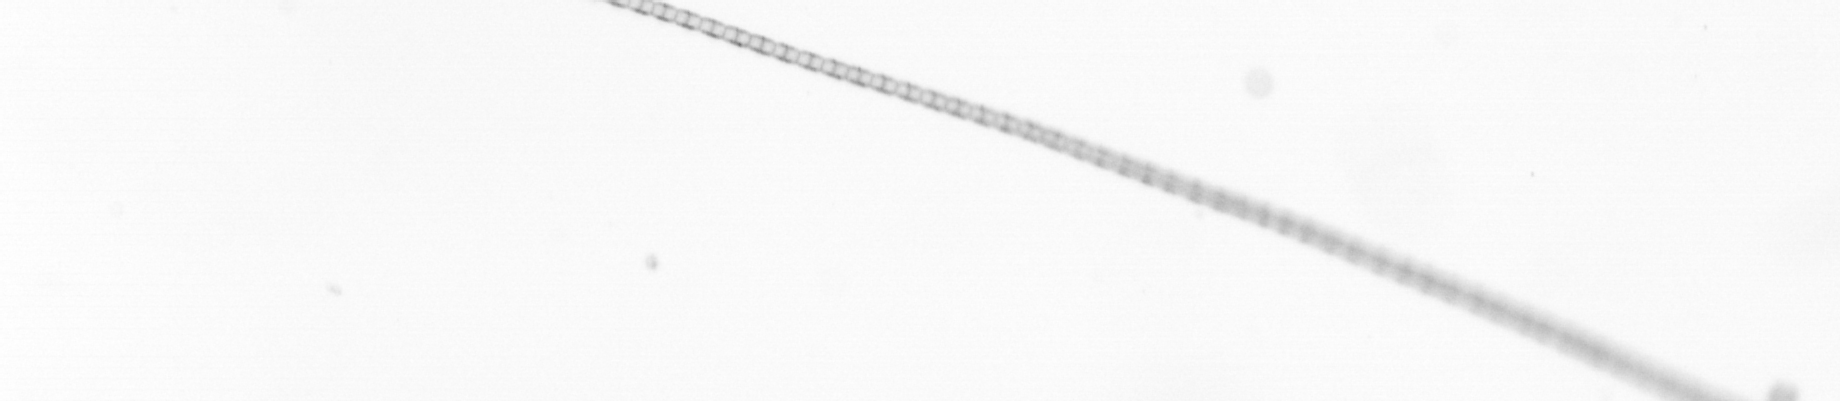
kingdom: Chromista
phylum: Ochrophyta
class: Bacillariophyceae
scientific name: Bacillariophyceae
